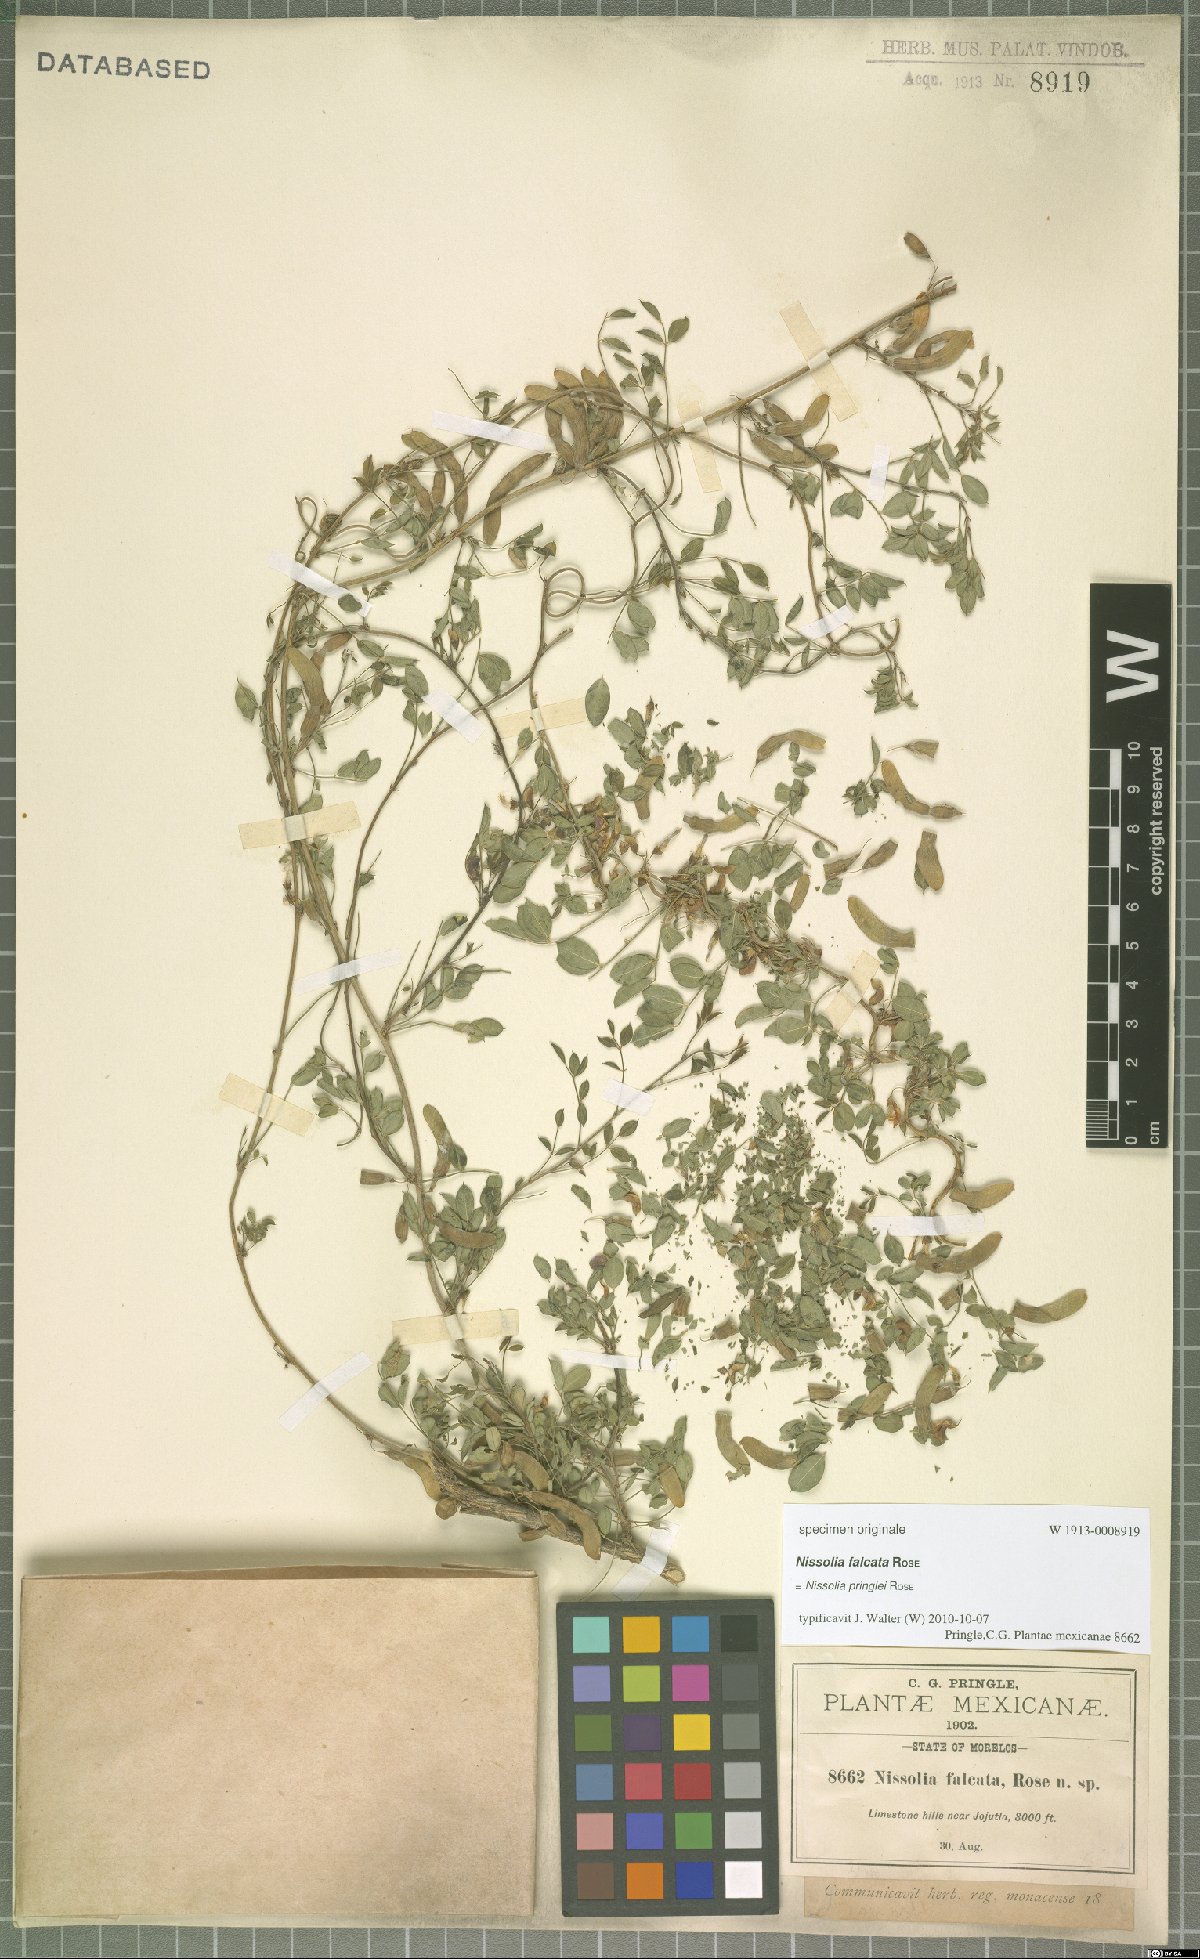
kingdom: Plantae
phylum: Tracheophyta
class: Magnoliopsida
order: Fabales
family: Fabaceae
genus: Nissolia
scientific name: Nissolia pringlei
